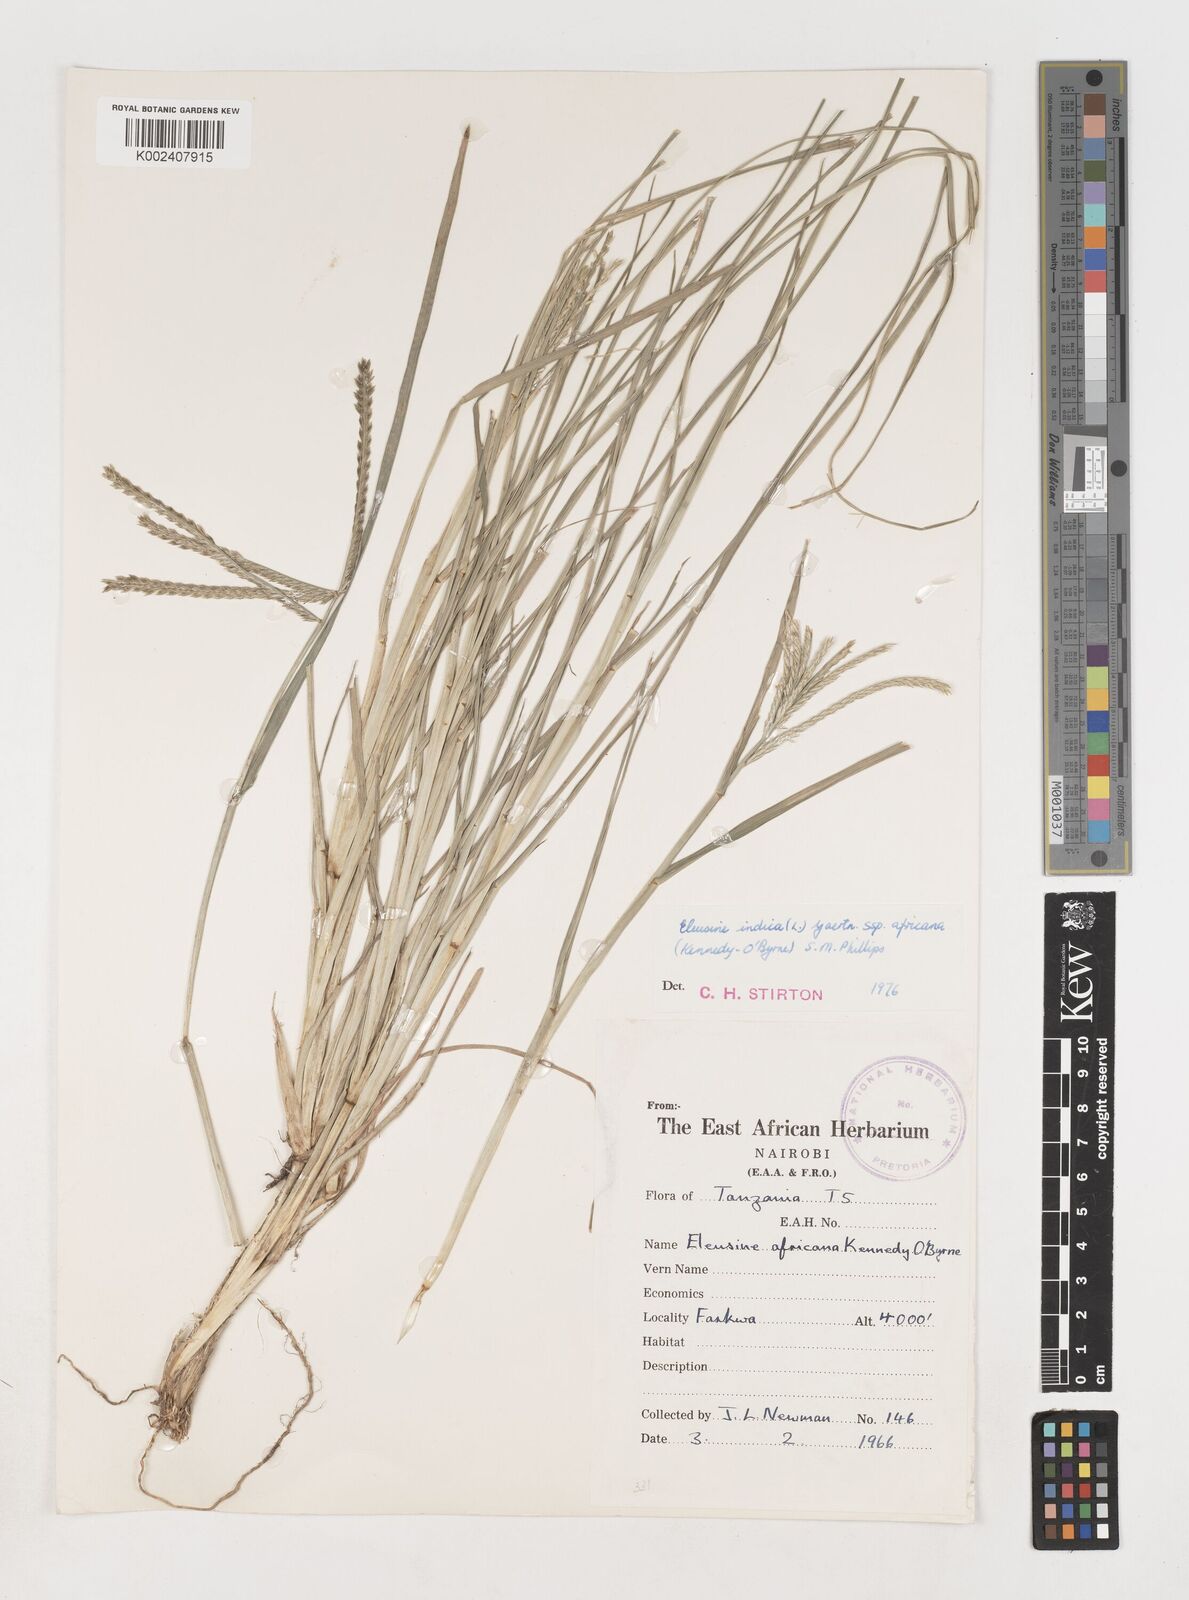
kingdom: Plantae
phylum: Tracheophyta
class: Liliopsida
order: Poales
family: Poaceae
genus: Eleusine
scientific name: Eleusine africana
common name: Wild african finger millet
